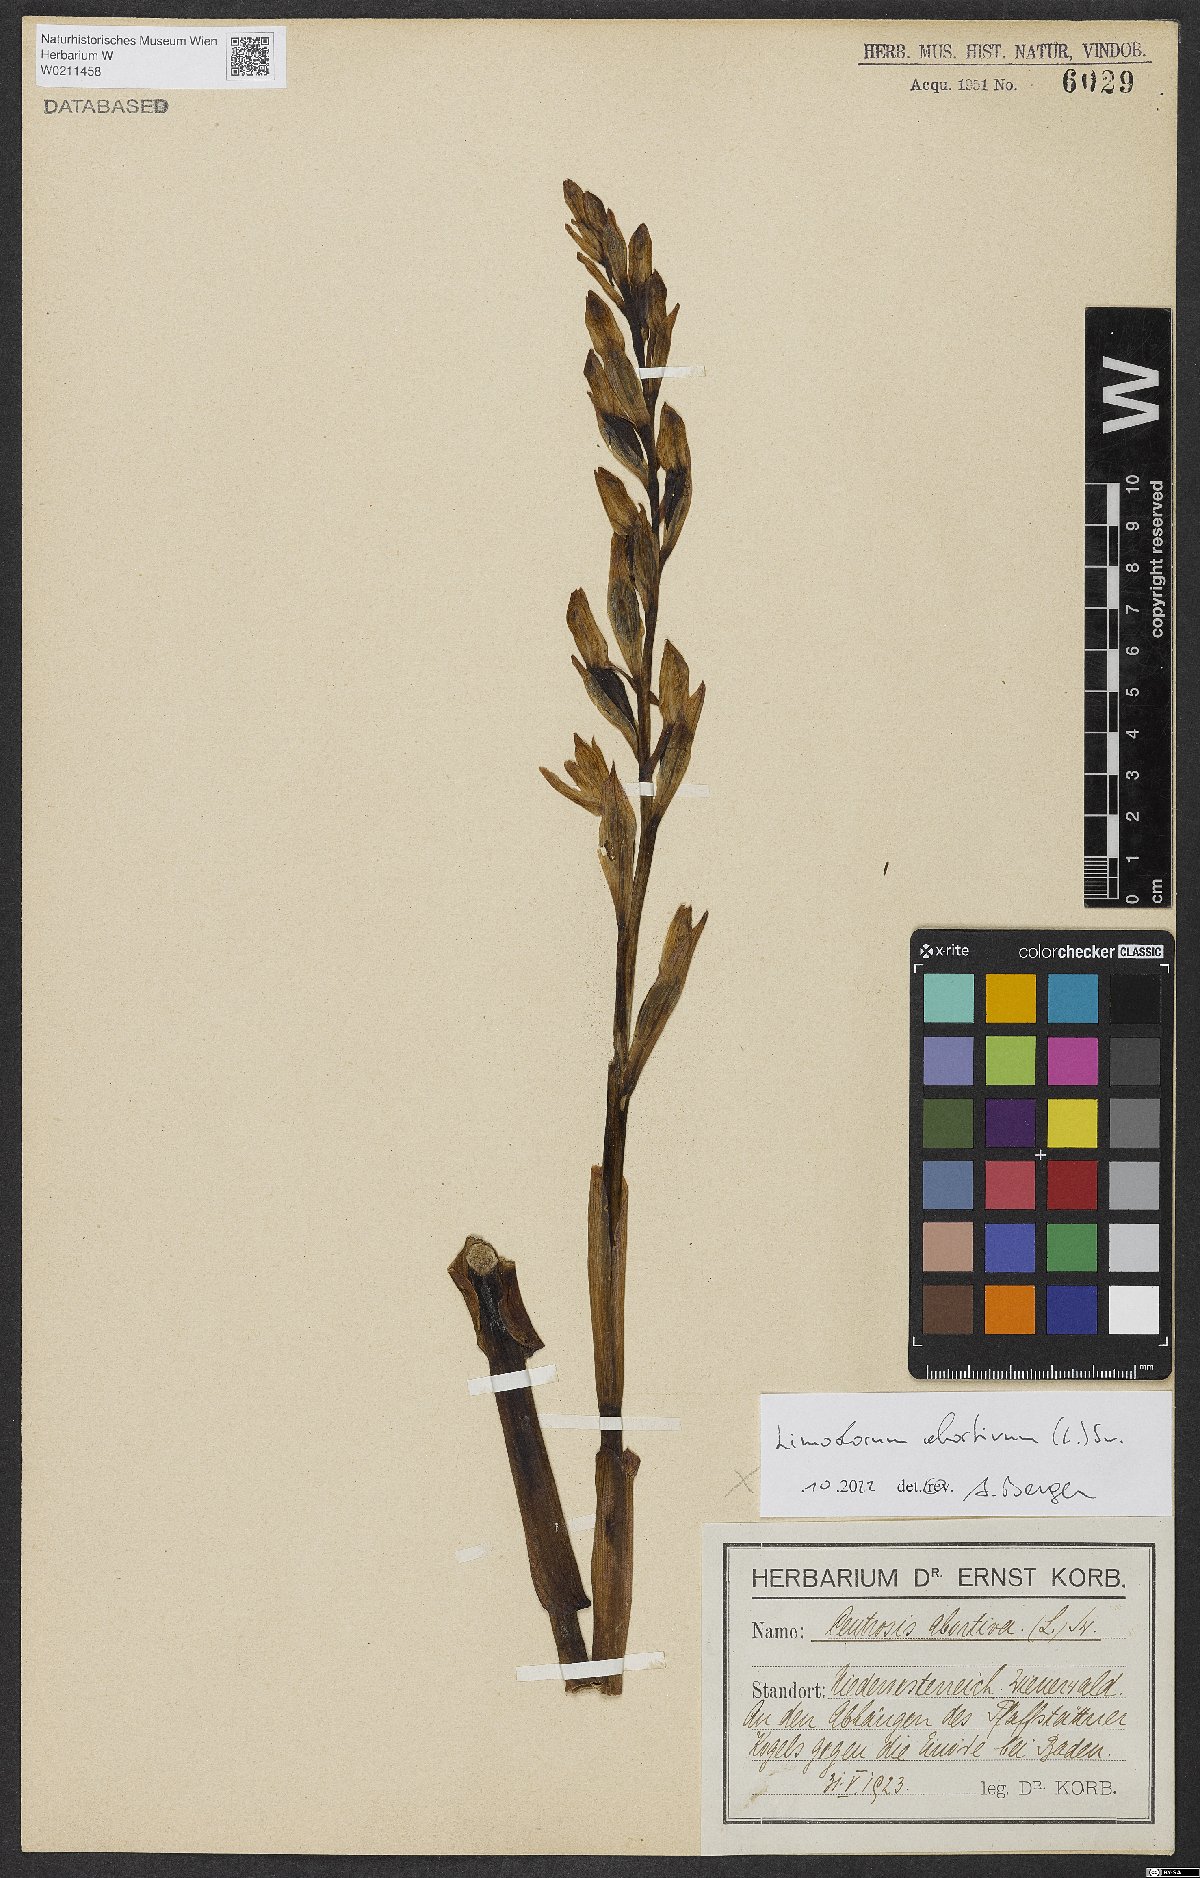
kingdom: Plantae
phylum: Tracheophyta
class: Liliopsida
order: Asparagales
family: Orchidaceae
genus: Limodorum
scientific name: Limodorum abortivum
